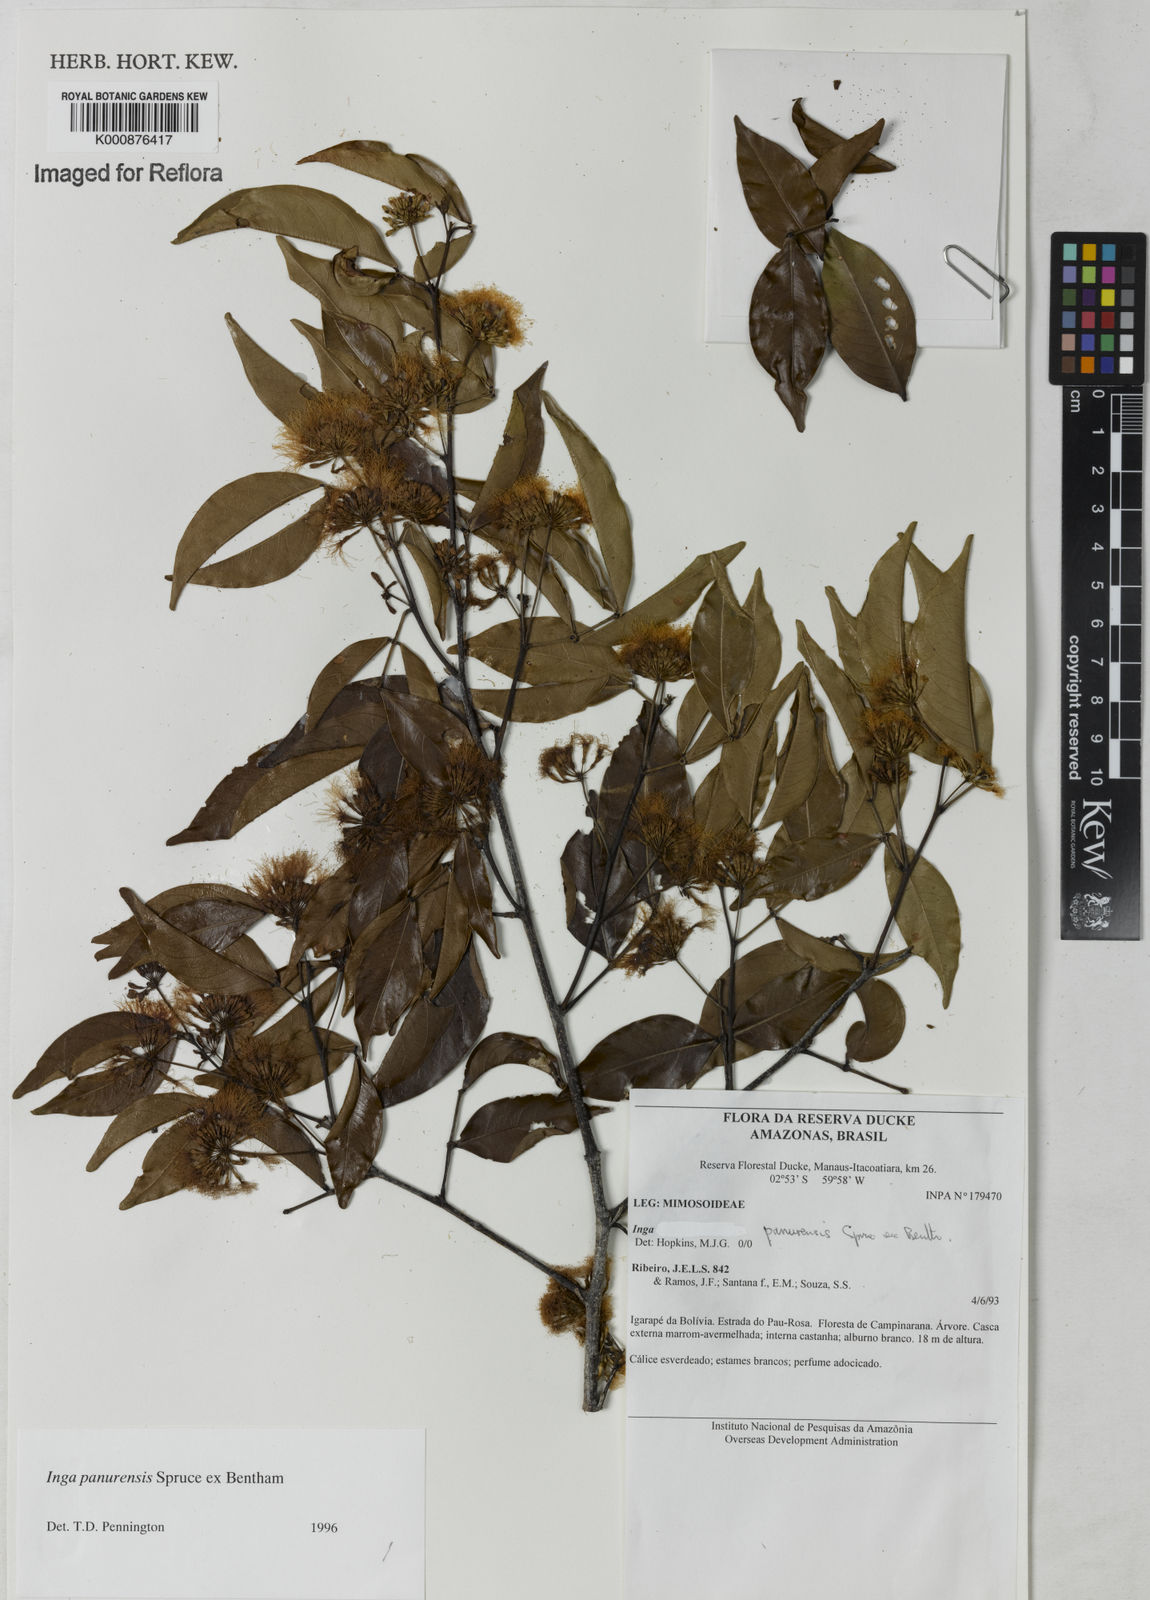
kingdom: Plantae
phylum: Tracheophyta
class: Magnoliopsida
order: Fabales
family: Fabaceae
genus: Inga
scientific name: Inga panurensis
